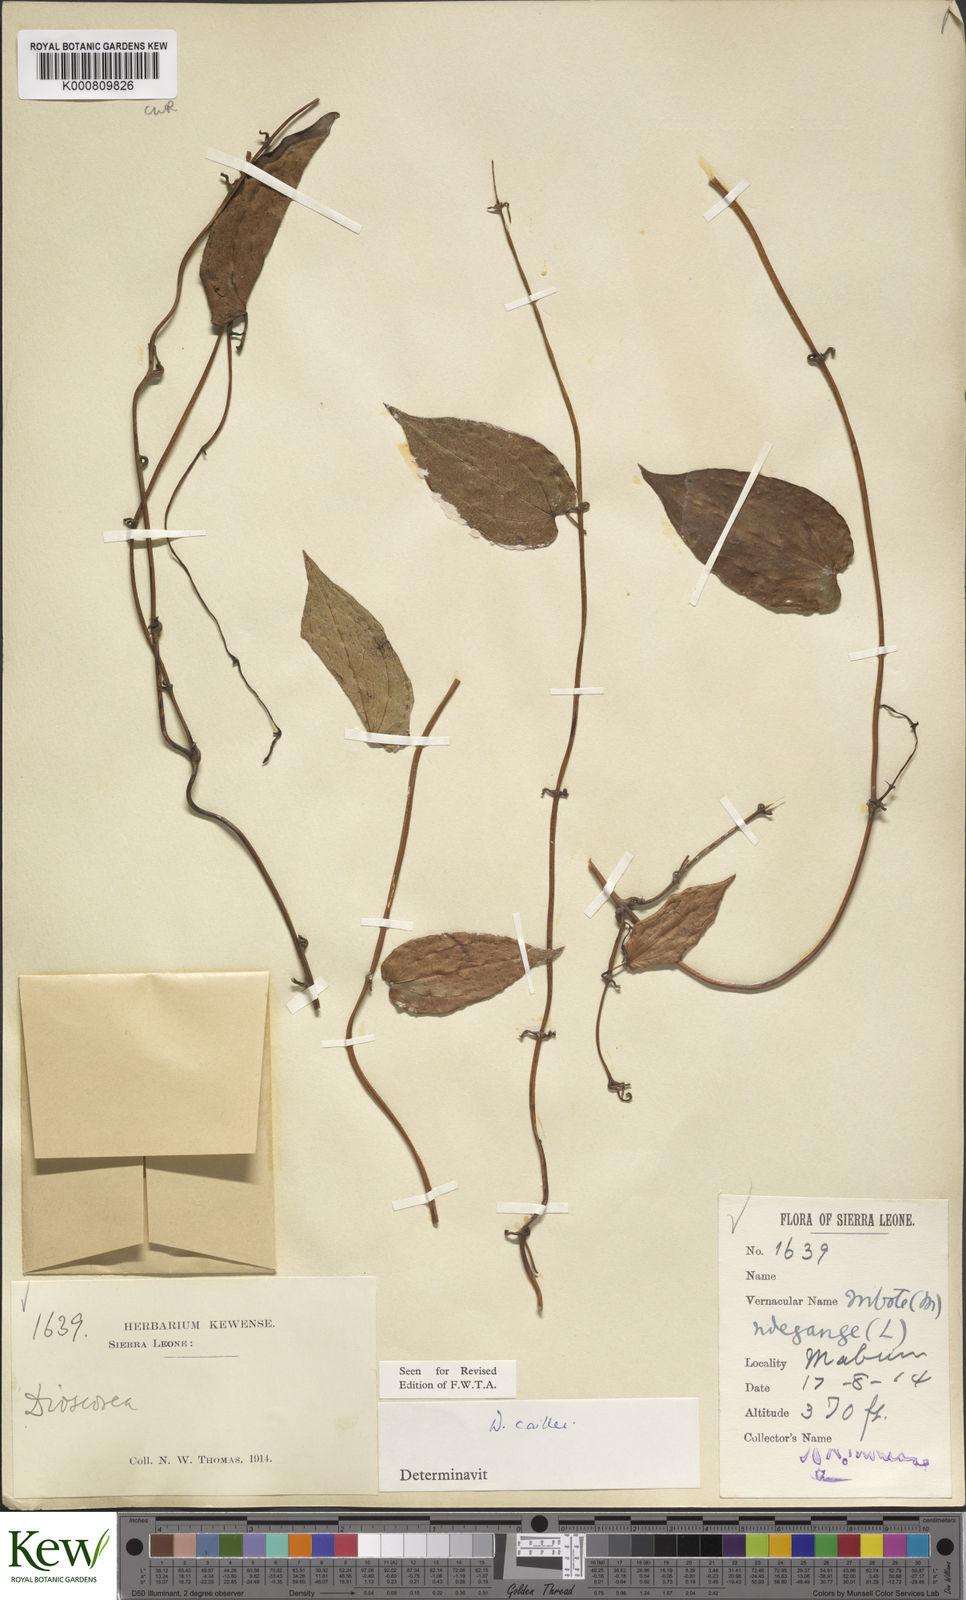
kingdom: Plantae
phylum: Tracheophyta
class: Liliopsida
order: Dioscoreales
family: Dioscoreaceae
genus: Dioscorea
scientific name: Dioscorea togoensis
